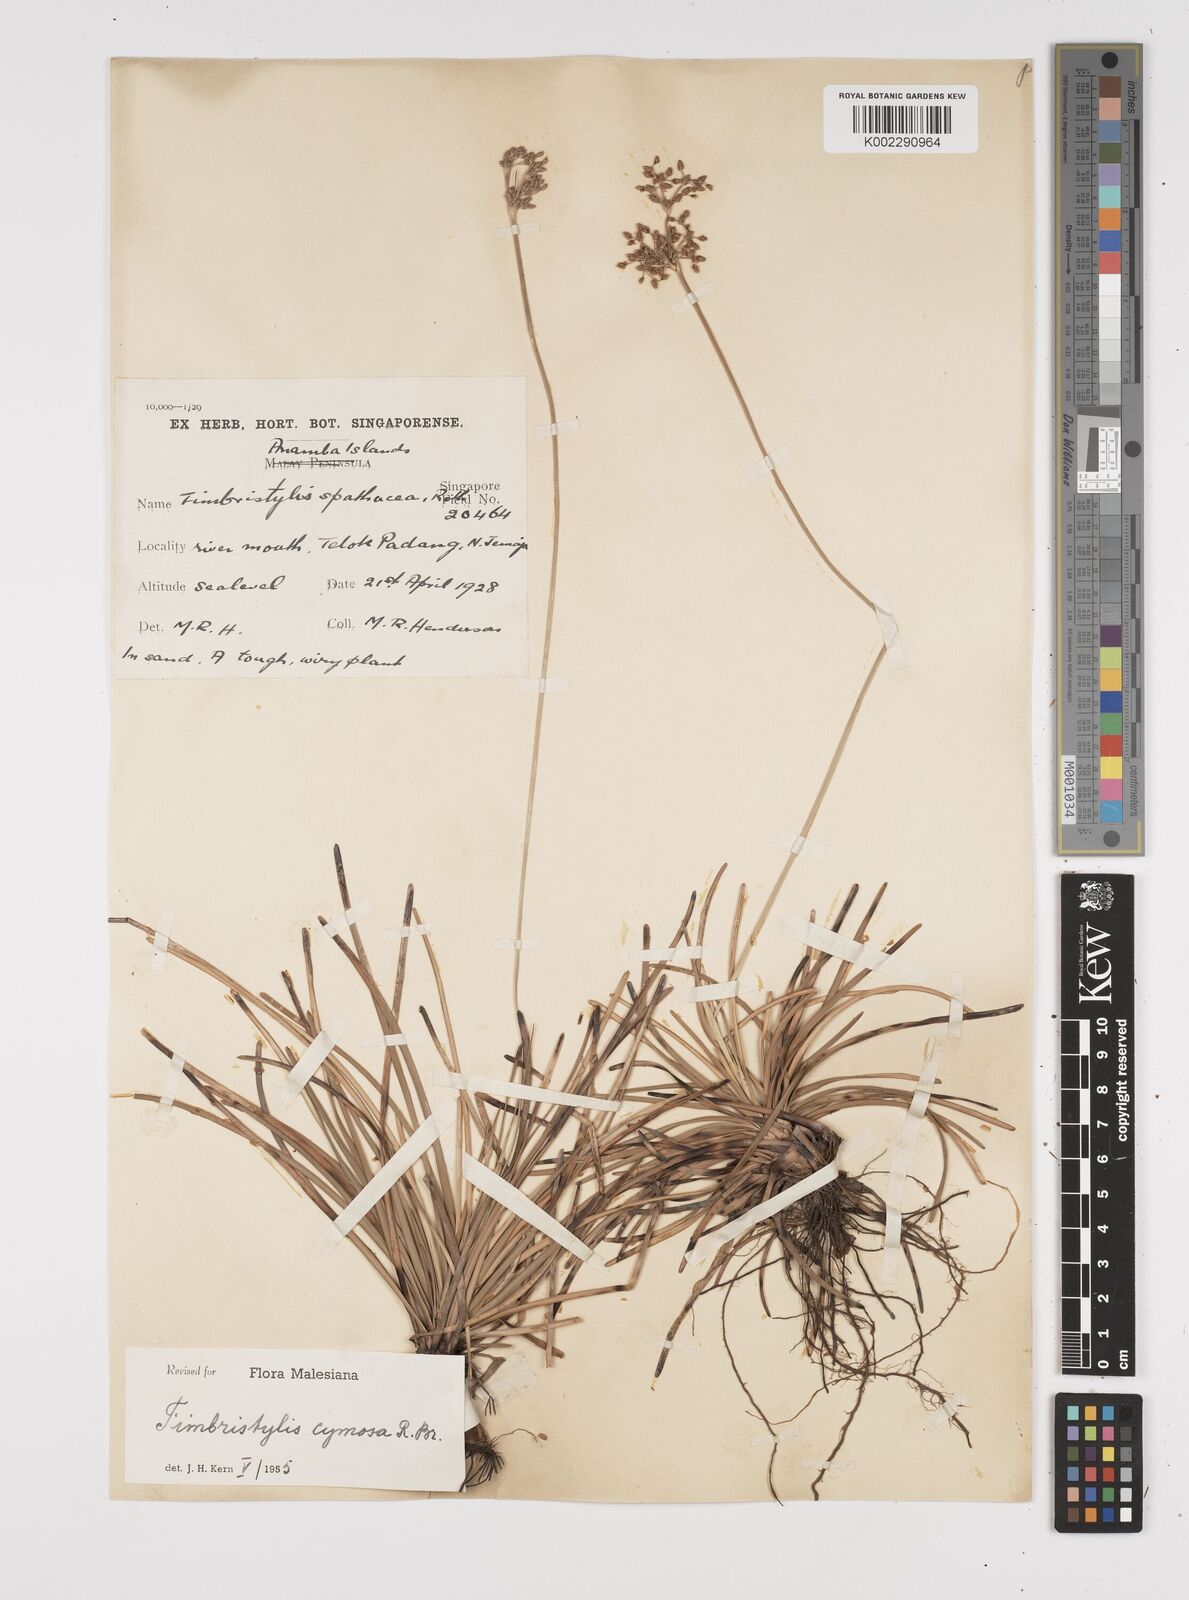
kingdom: Plantae
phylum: Tracheophyta
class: Liliopsida
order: Poales
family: Cyperaceae
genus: Fimbristylis
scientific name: Fimbristylis cymosa
